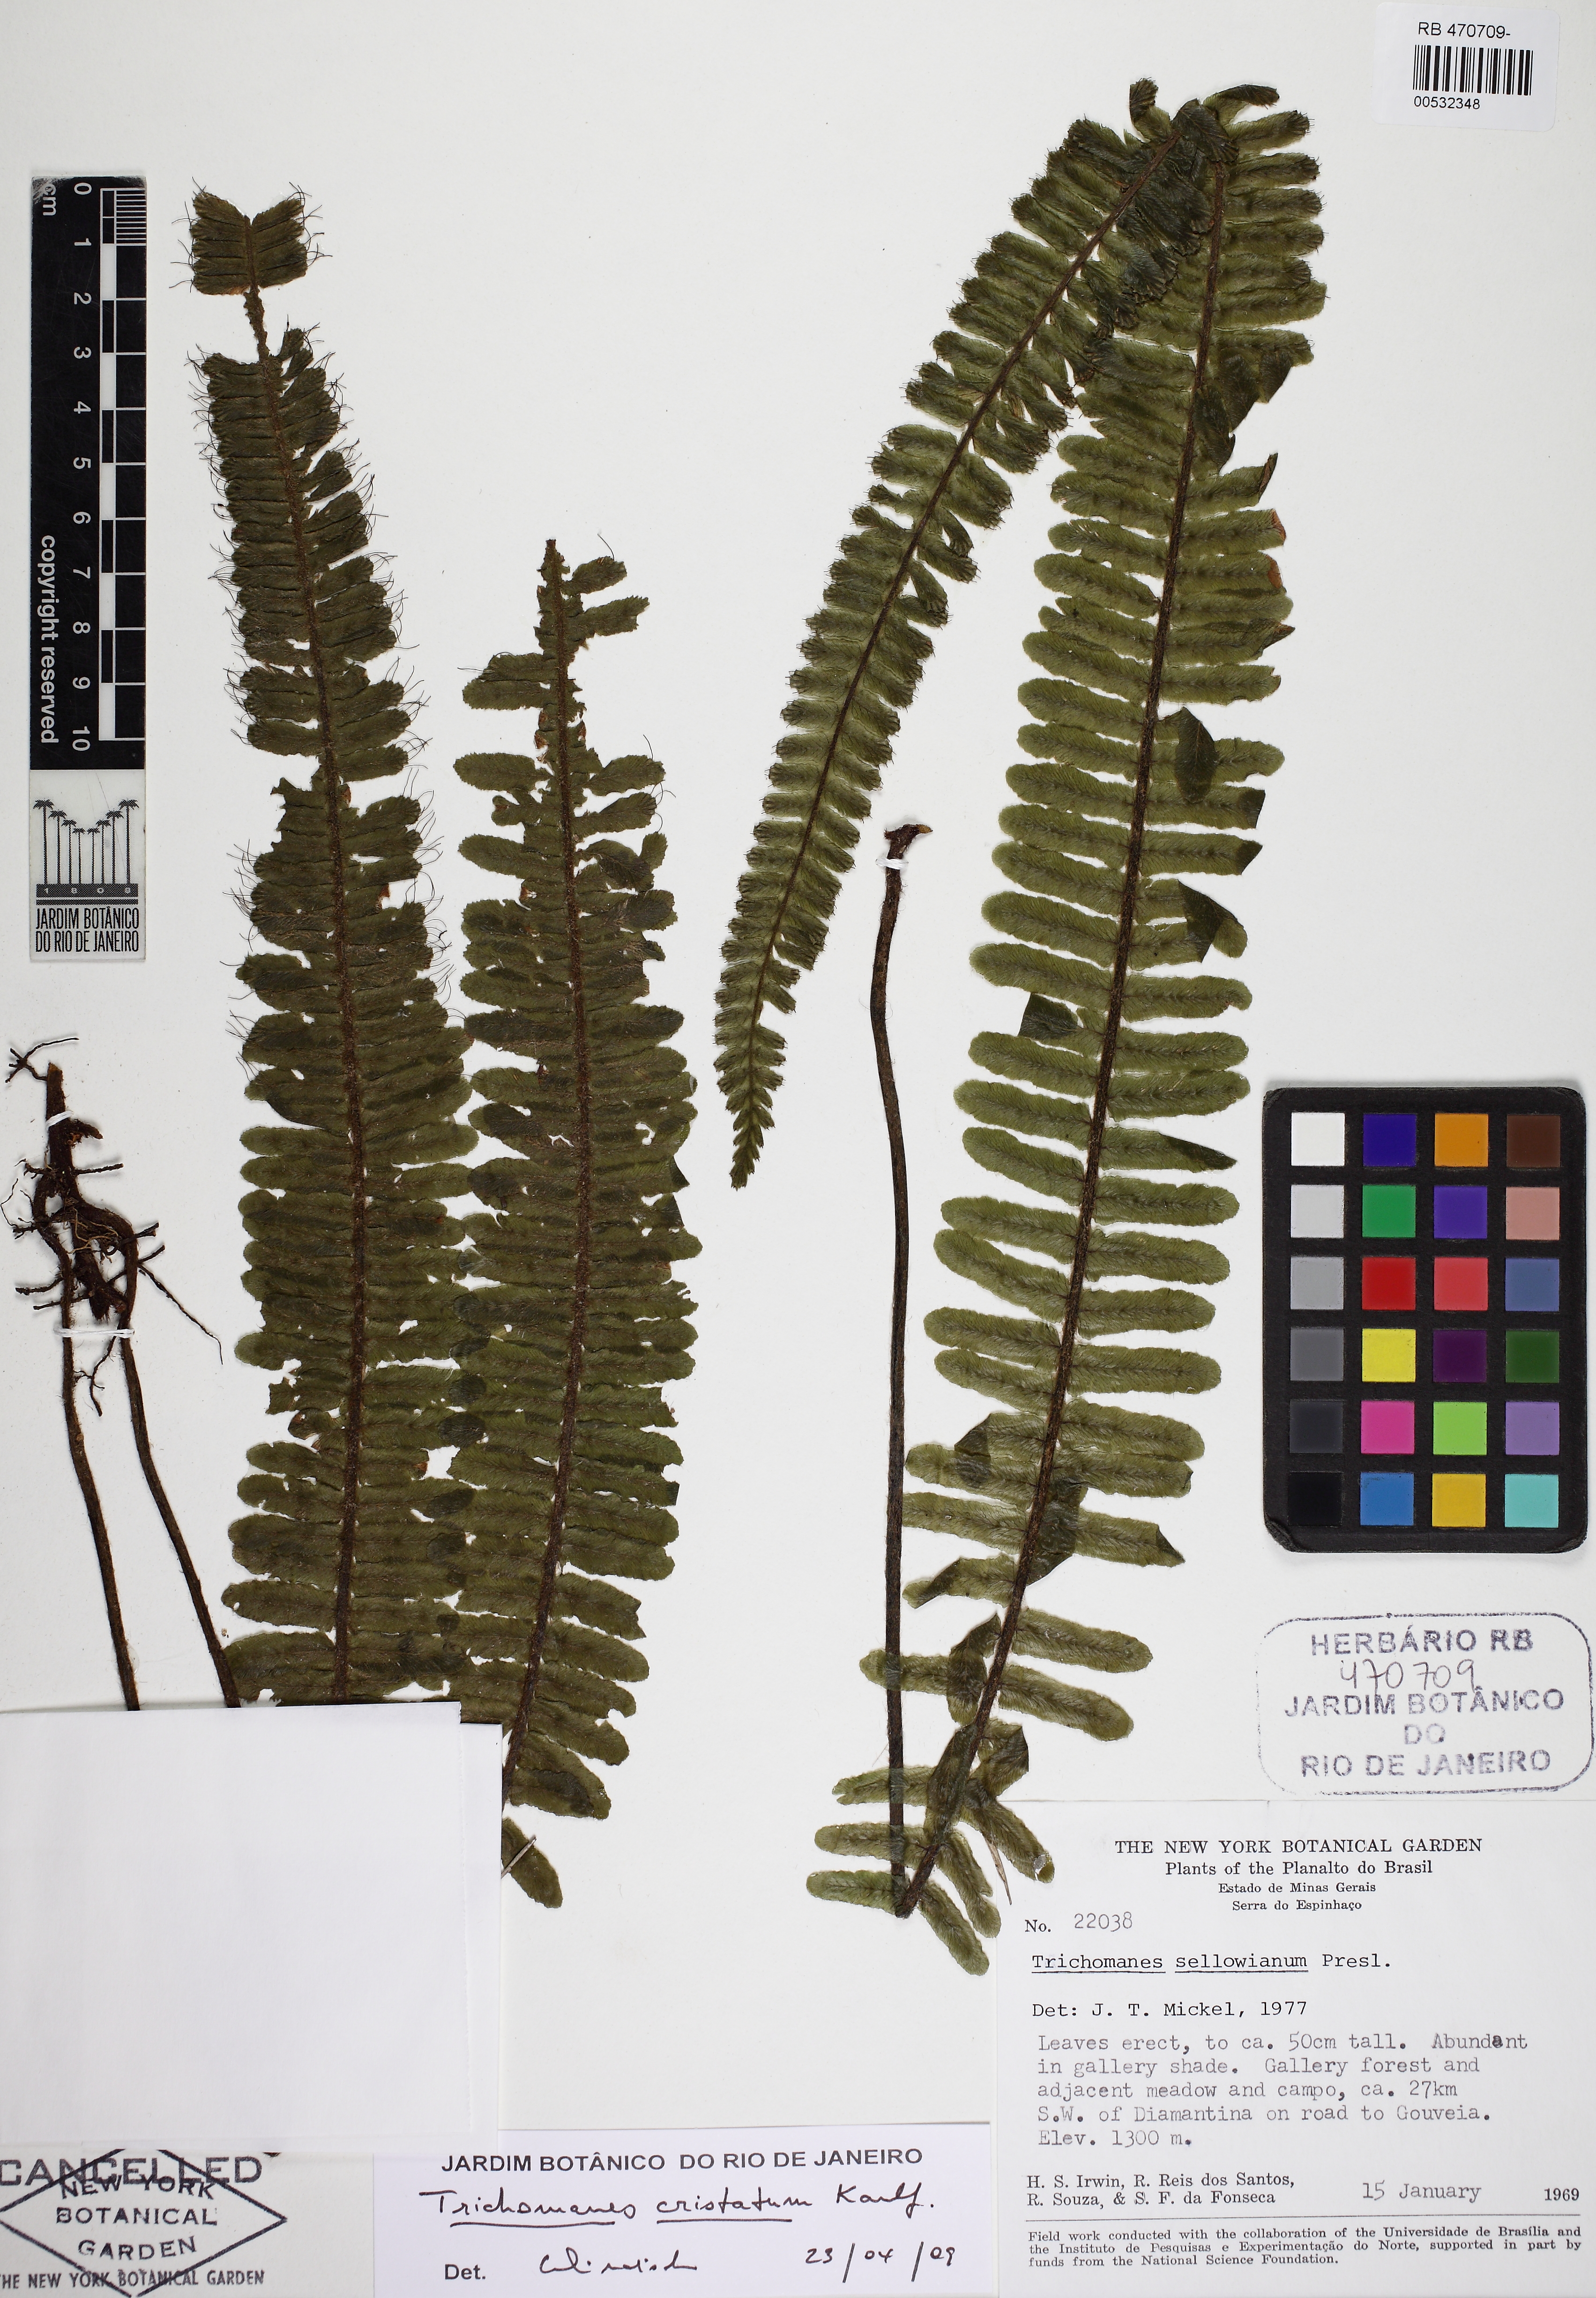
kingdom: Plantae
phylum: Tracheophyta
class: Polypodiopsida
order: Hymenophyllales
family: Hymenophyllaceae
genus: Trichomanes
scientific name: Trichomanes cristatum
